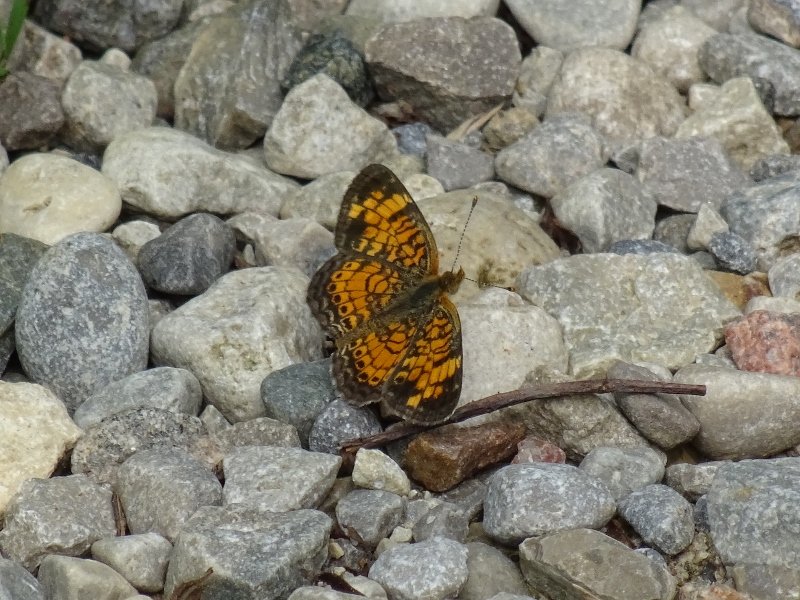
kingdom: Animalia
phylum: Arthropoda
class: Insecta
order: Lepidoptera
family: Nymphalidae
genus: Phyciodes
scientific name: Phyciodes tharos
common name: Northern Crescent
